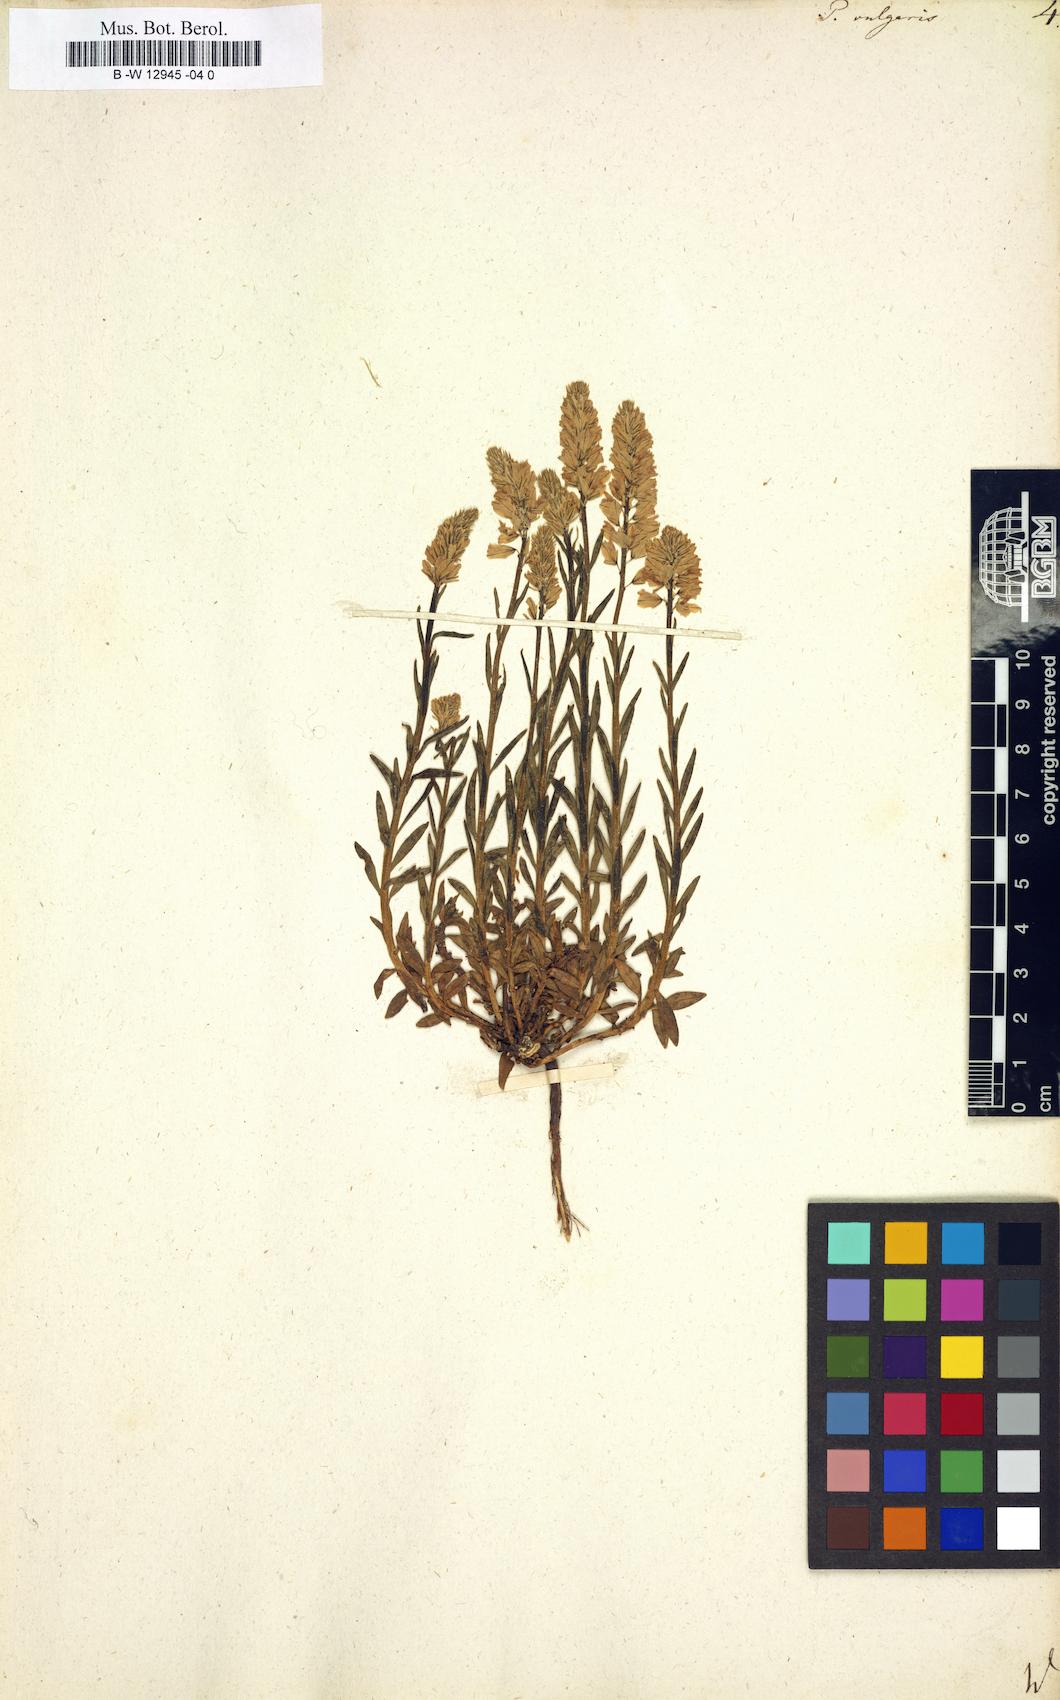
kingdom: Plantae
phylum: Tracheophyta
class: Magnoliopsida
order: Fabales
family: Polygalaceae
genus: Polygala
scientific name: Polygala vulgaris
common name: Common milkwort
